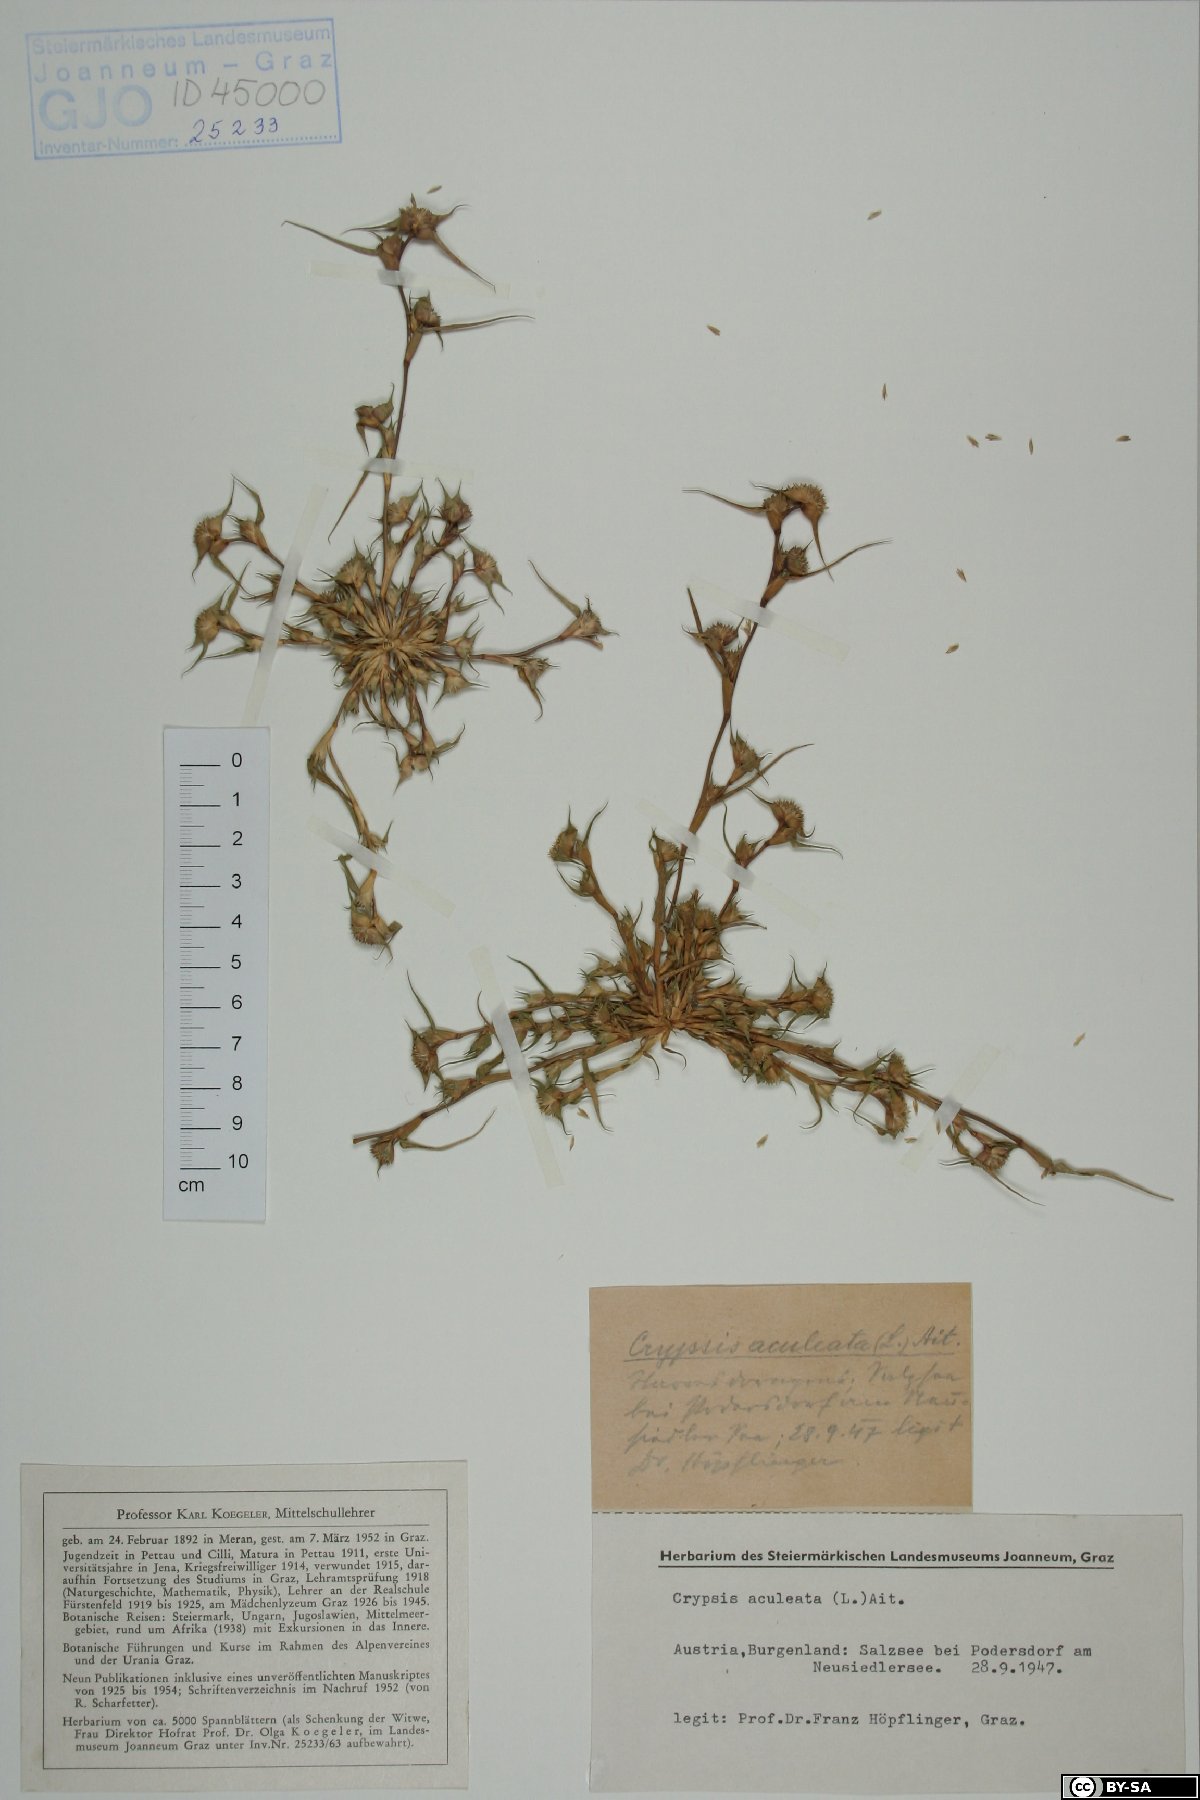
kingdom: Plantae
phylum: Tracheophyta
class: Liliopsida
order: Poales
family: Poaceae
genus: Sporobolus
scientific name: Sporobolus aculeatus
